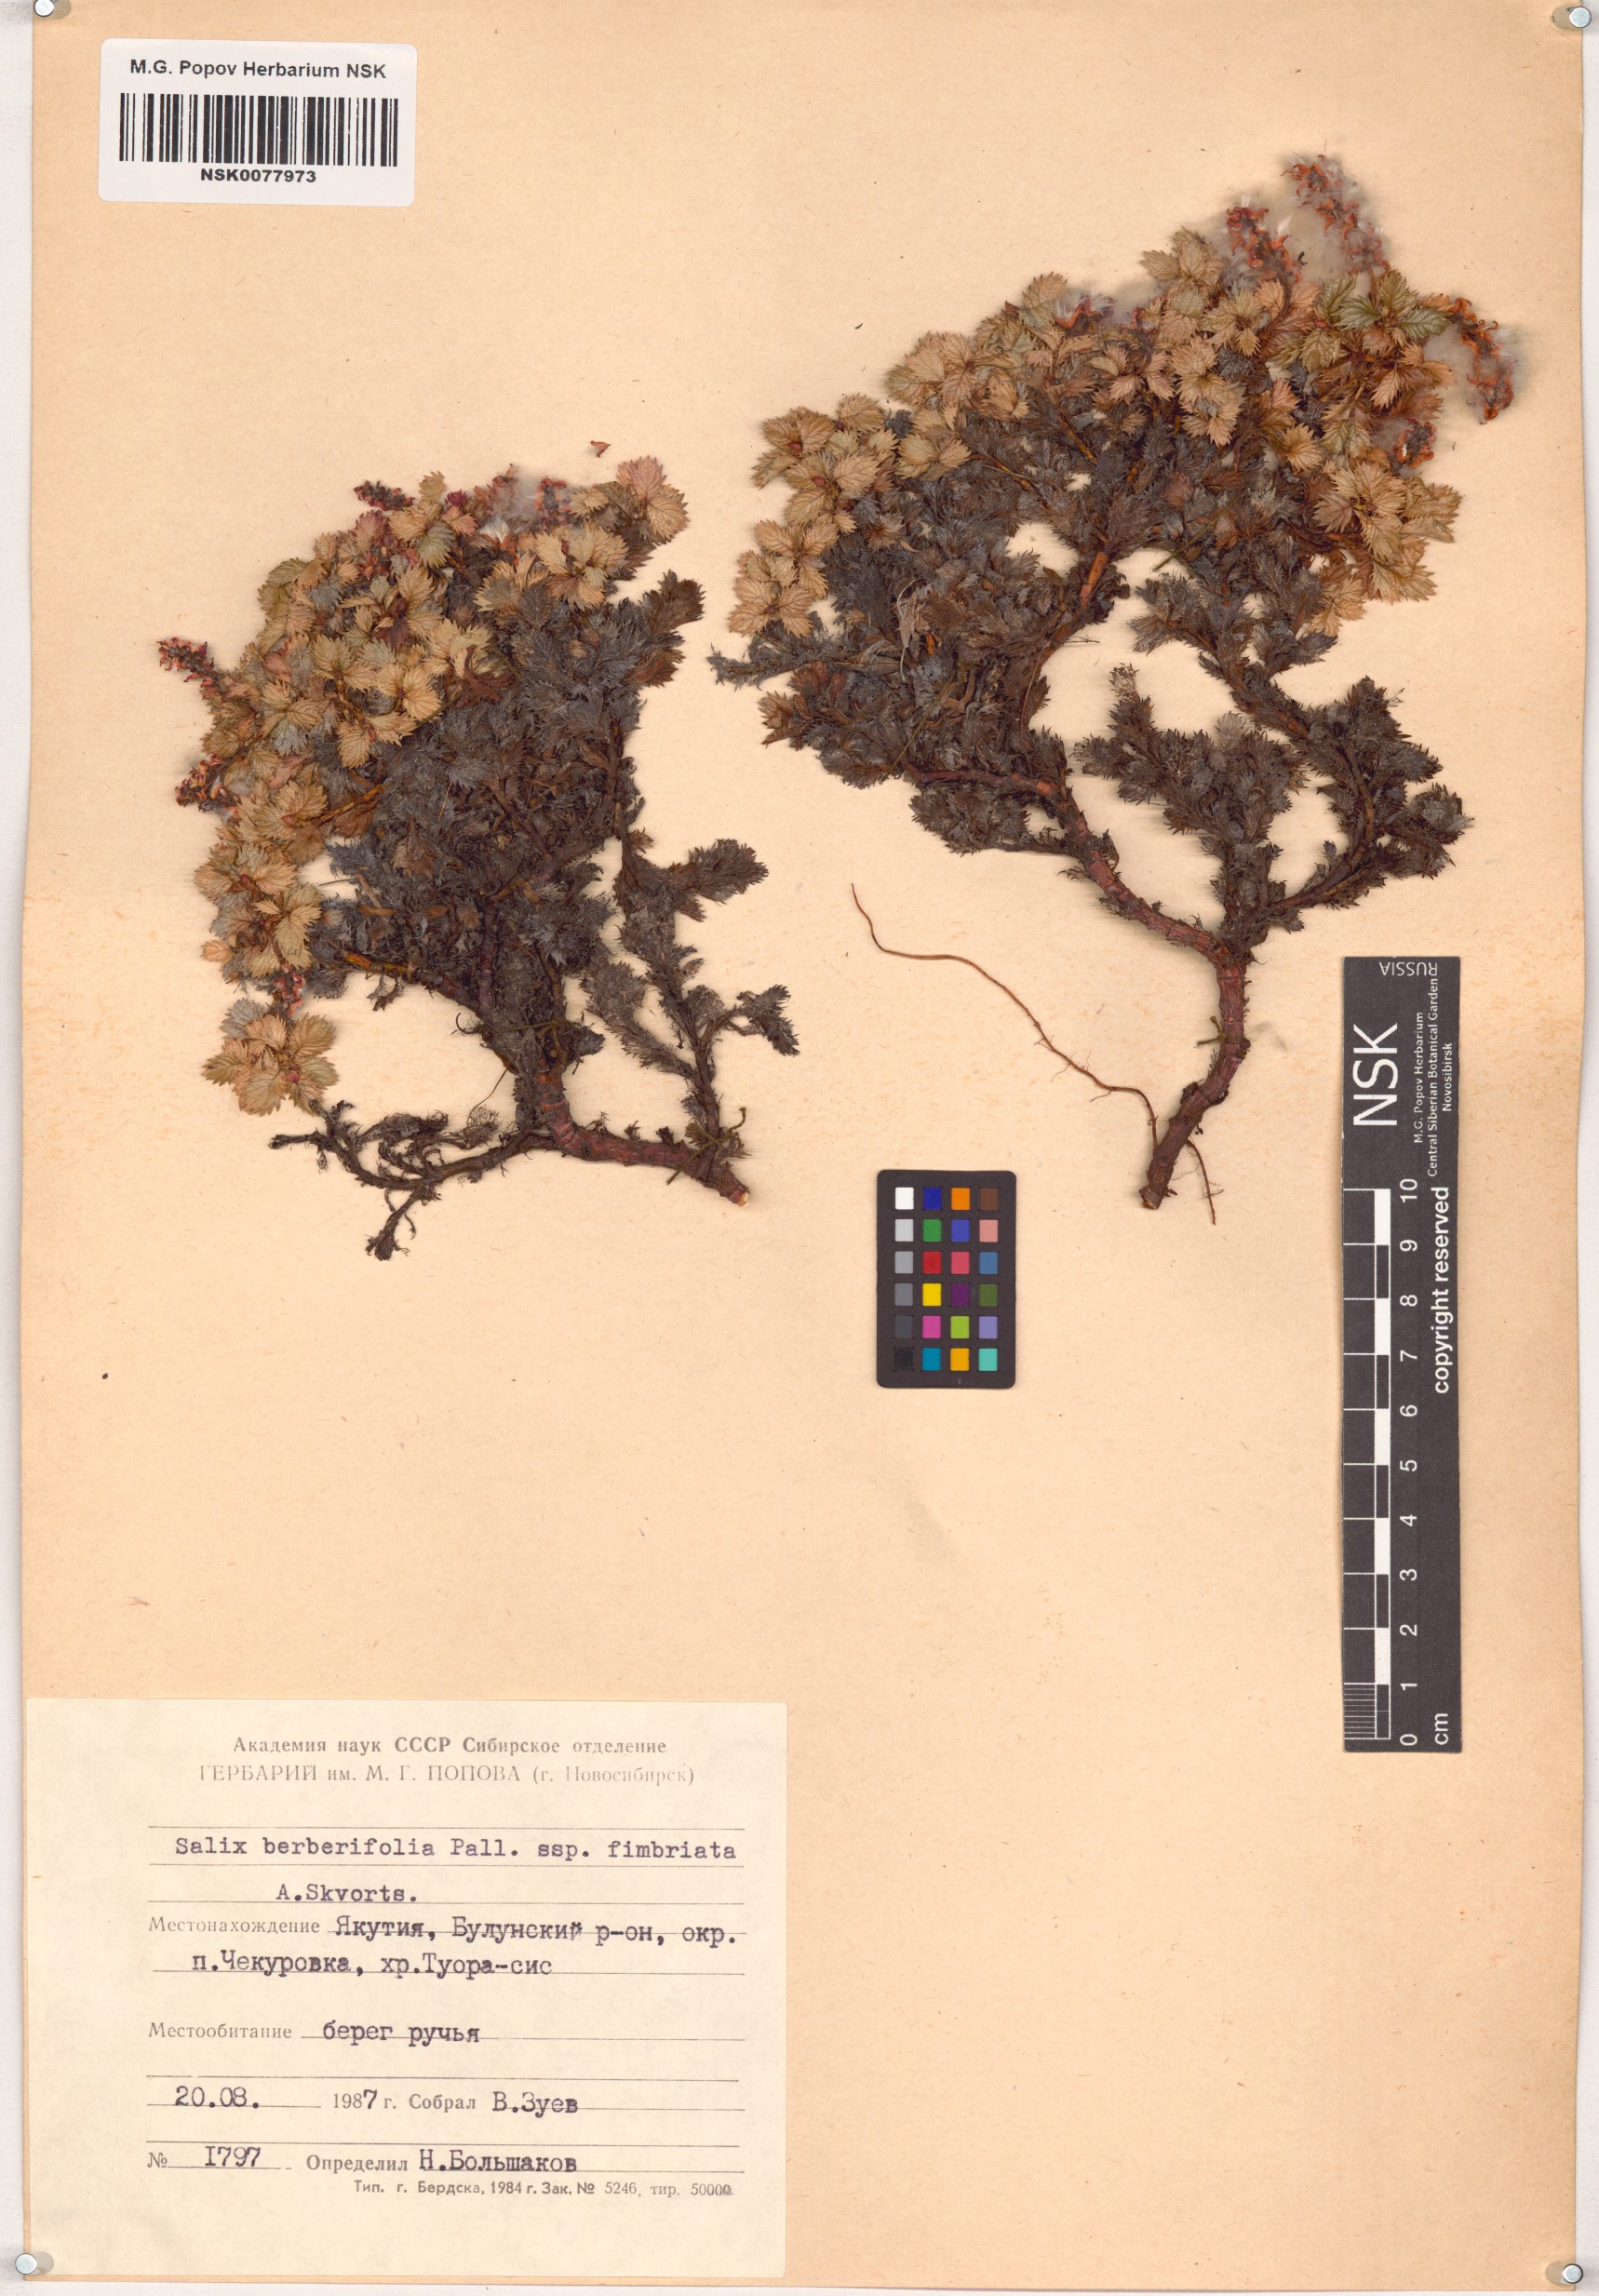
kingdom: Plantae
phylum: Tracheophyta
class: Magnoliopsida
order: Malpighiales
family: Salicaceae
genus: Salix
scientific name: Salix berberifolia
